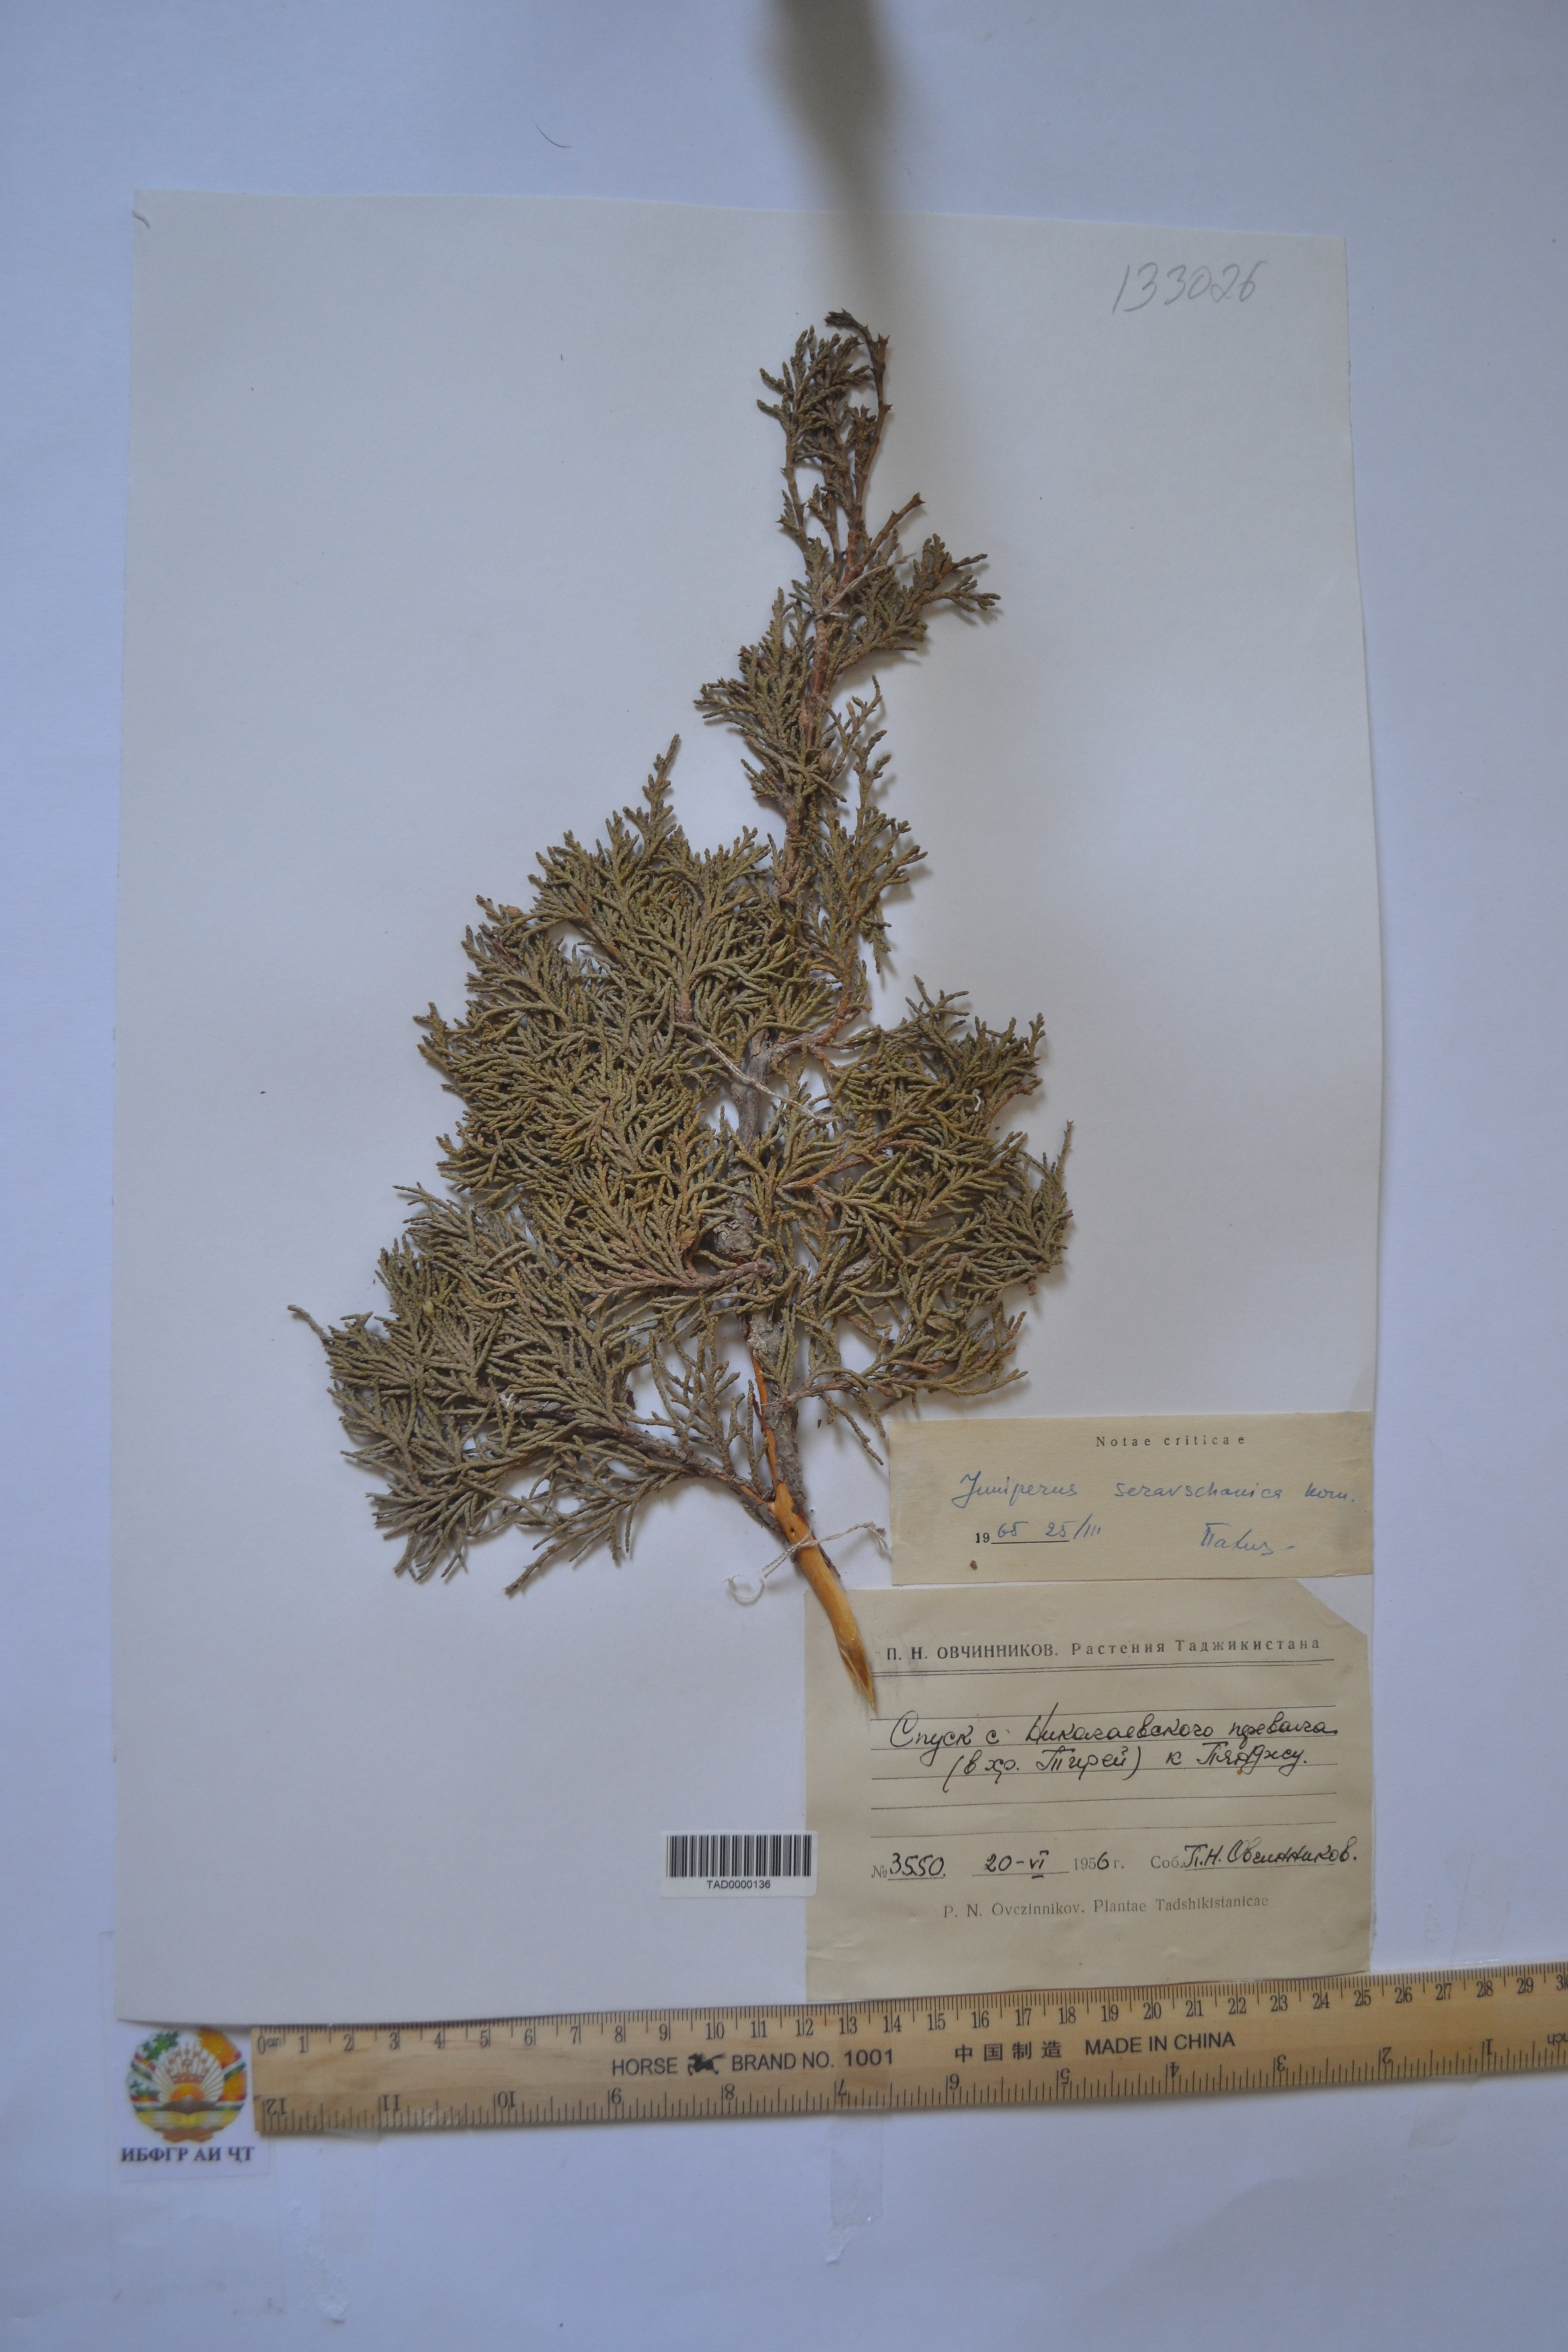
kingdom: Plantae
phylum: Tracheophyta
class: Pinopsida
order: Pinales
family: Cupressaceae
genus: Juniperus
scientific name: Juniperus excelsa
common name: Crimean juniper
